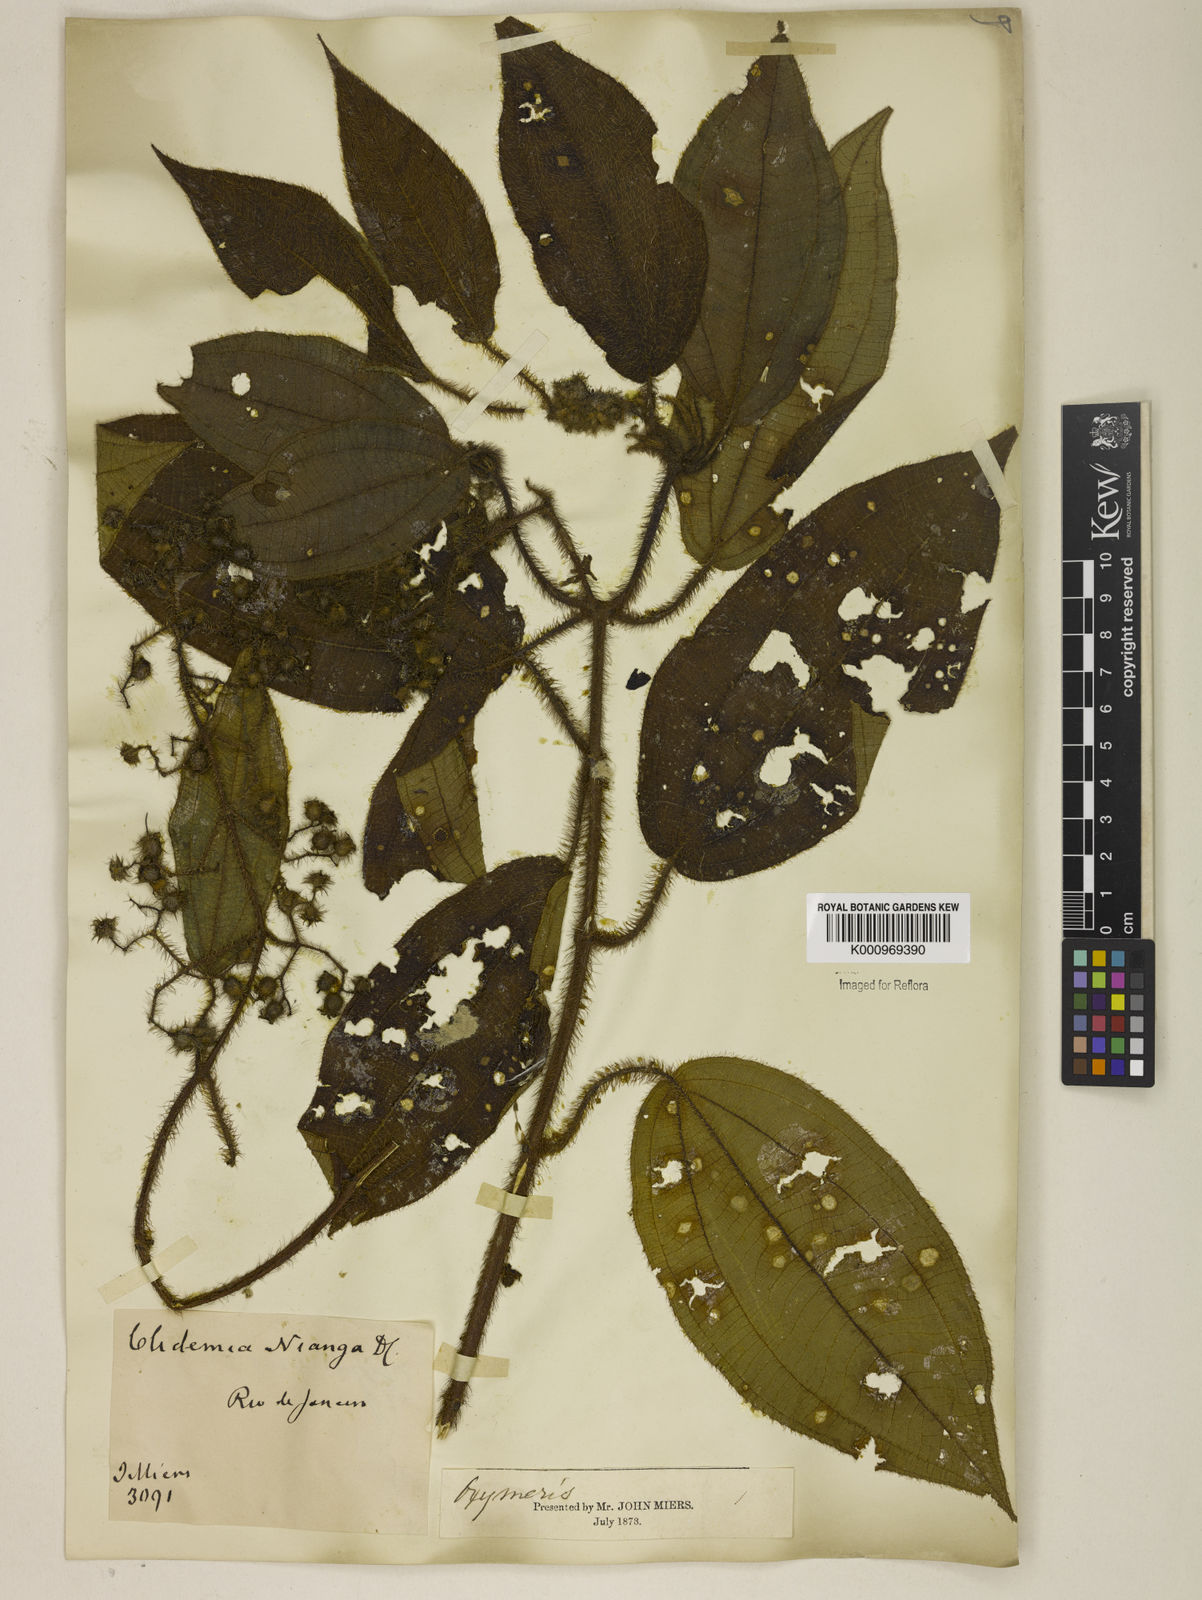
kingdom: Plantae
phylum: Tracheophyta
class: Magnoliopsida
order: Myrtales
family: Melastomataceae
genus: Miconia
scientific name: Miconia nianga
